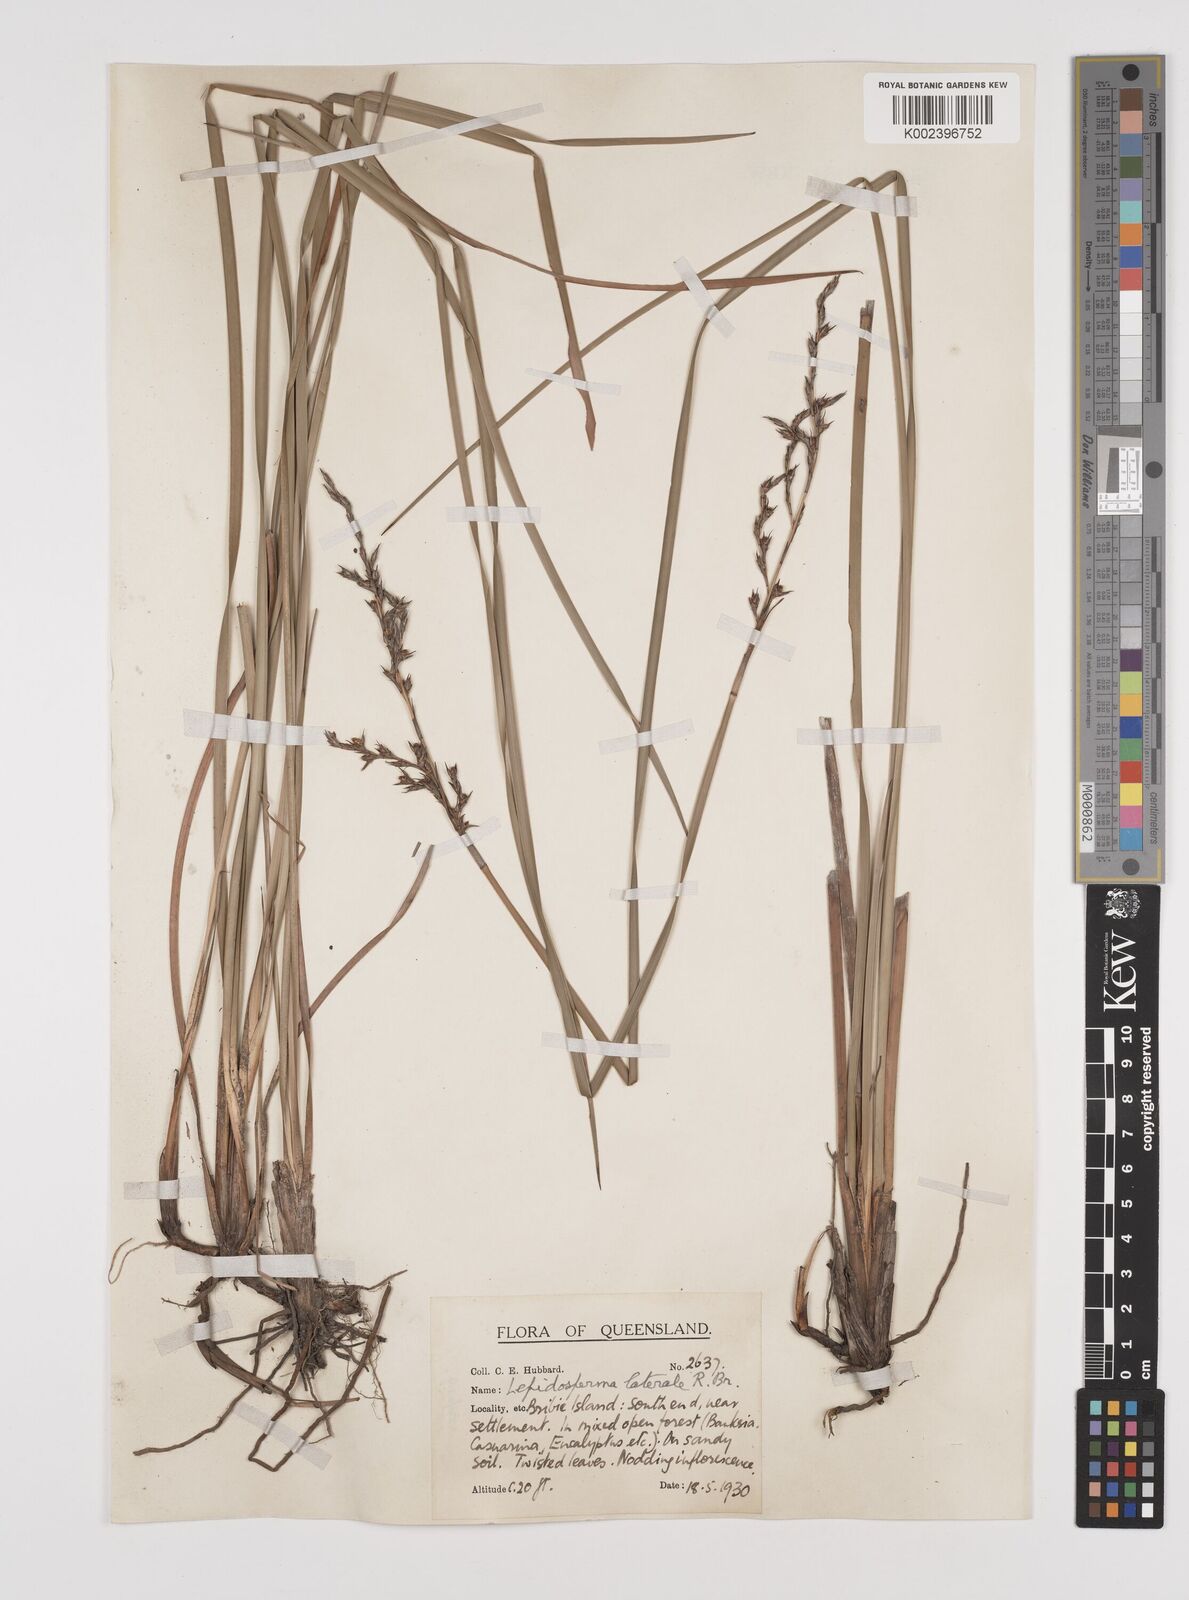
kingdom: Plantae
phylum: Tracheophyta
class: Liliopsida
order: Poales
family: Cyperaceae
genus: Lepidosperma
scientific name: Lepidosperma laterale
